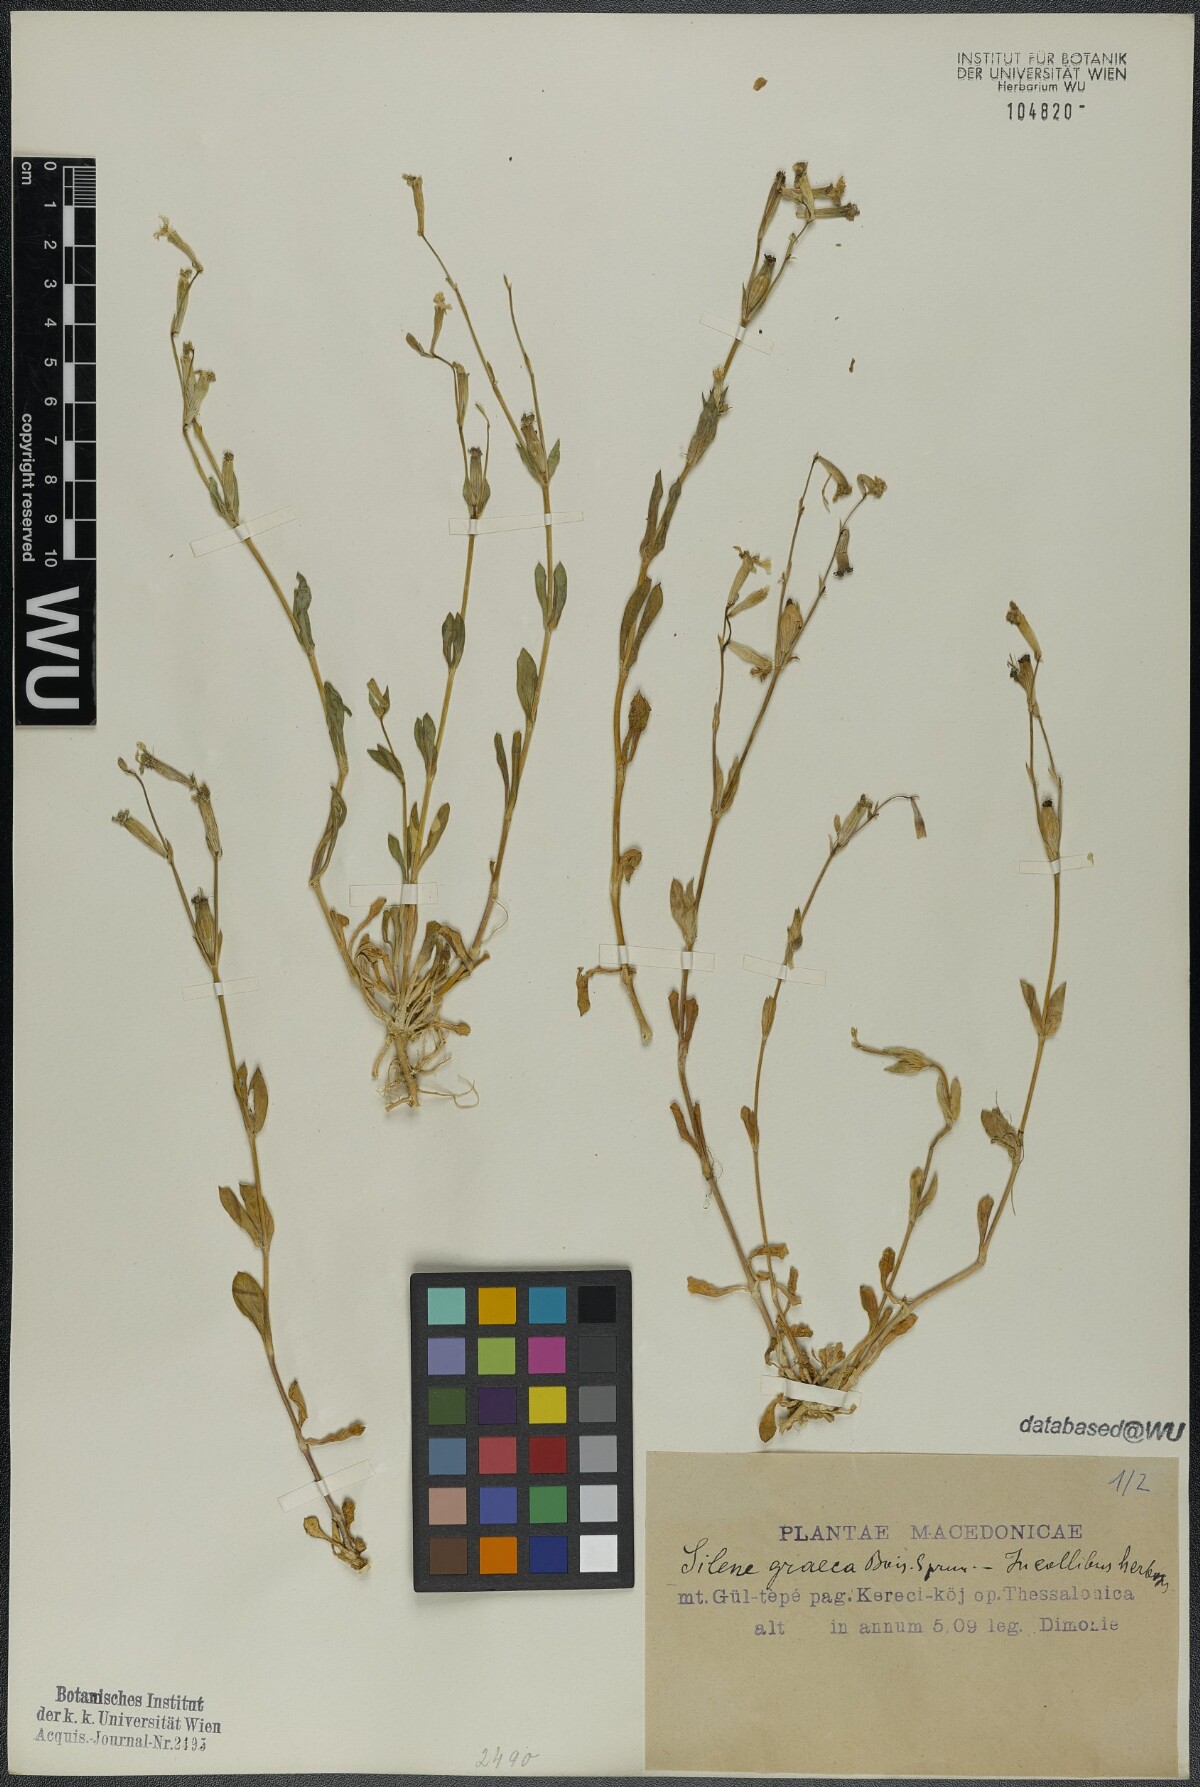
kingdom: Plantae
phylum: Tracheophyta
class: Magnoliopsida
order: Caryophyllales
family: Caryophyllaceae
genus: Silene
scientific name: Silene graeca
